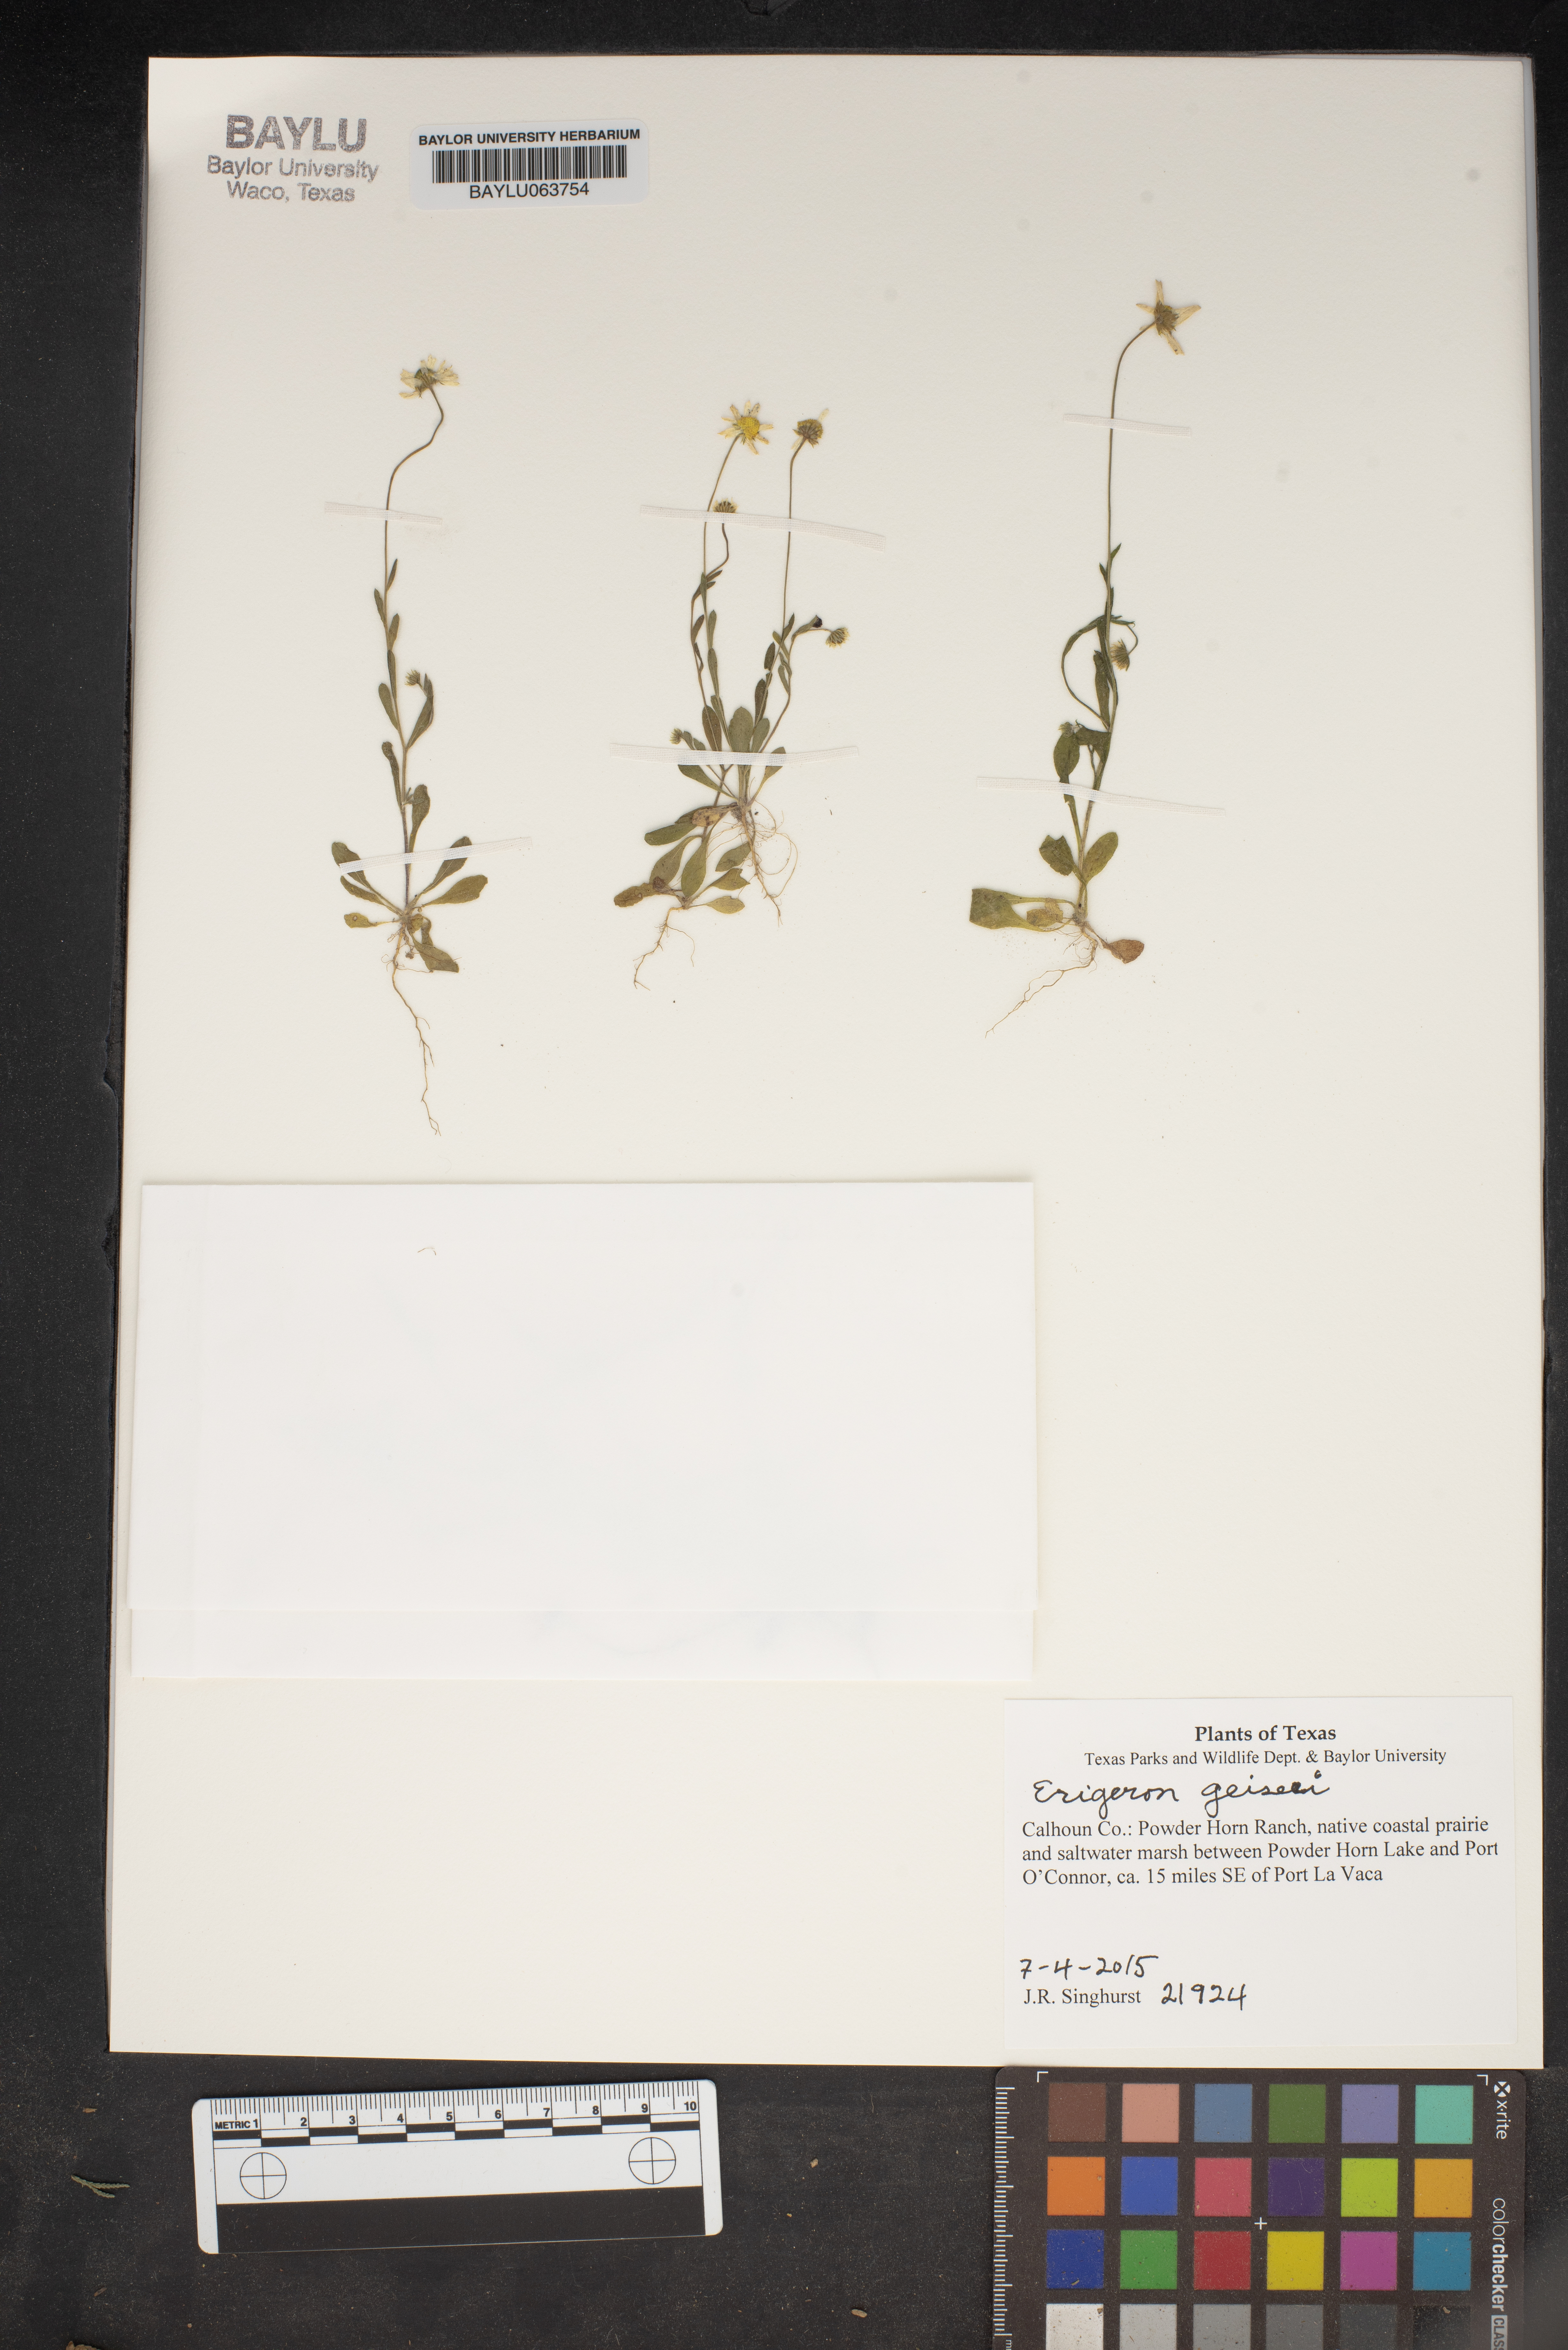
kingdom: Plantae
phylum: Tracheophyta
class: Magnoliopsida
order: Asterales
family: Asteraceae
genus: Erigeron
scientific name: Erigeron geiseri
